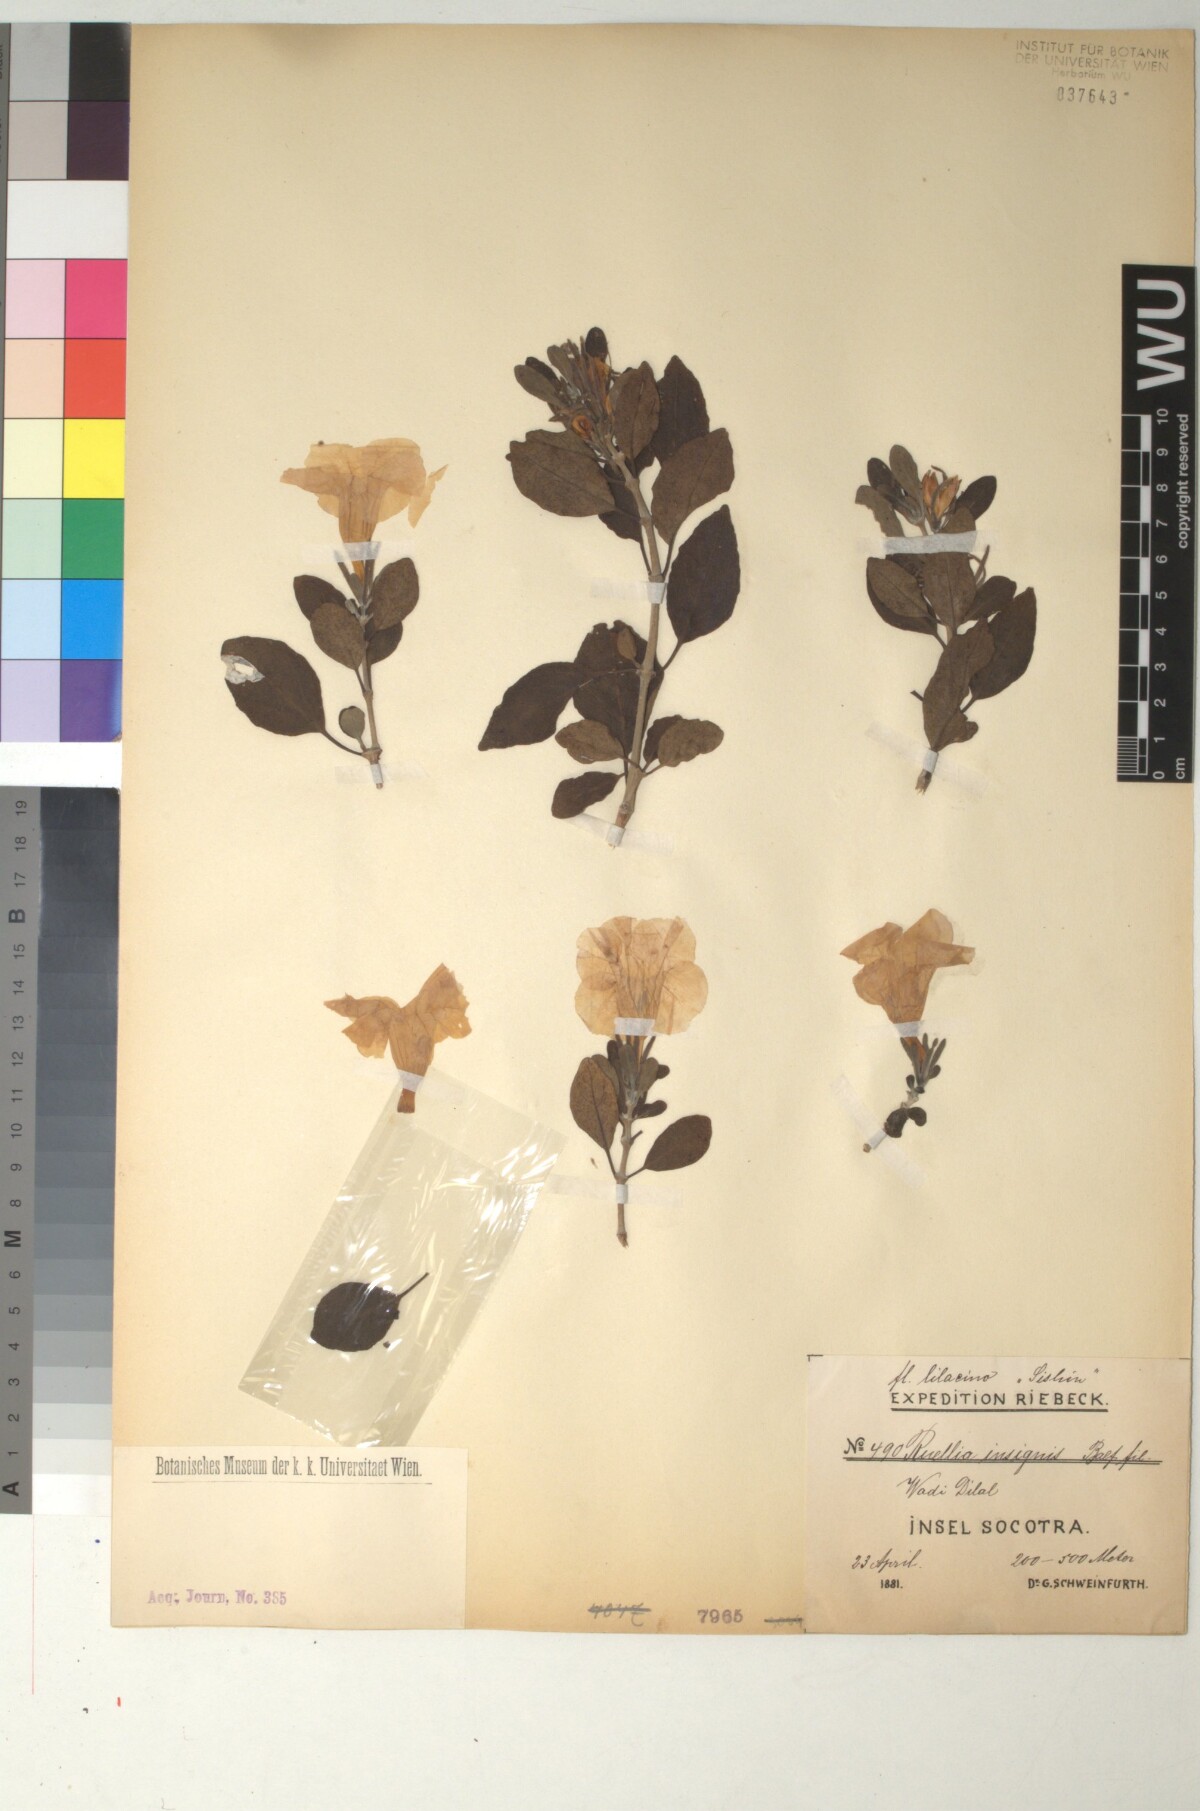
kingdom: Plantae
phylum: Tracheophyta
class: Magnoliopsida
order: Lamiales
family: Acanthaceae
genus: Ruellia
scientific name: Ruellia insignis
